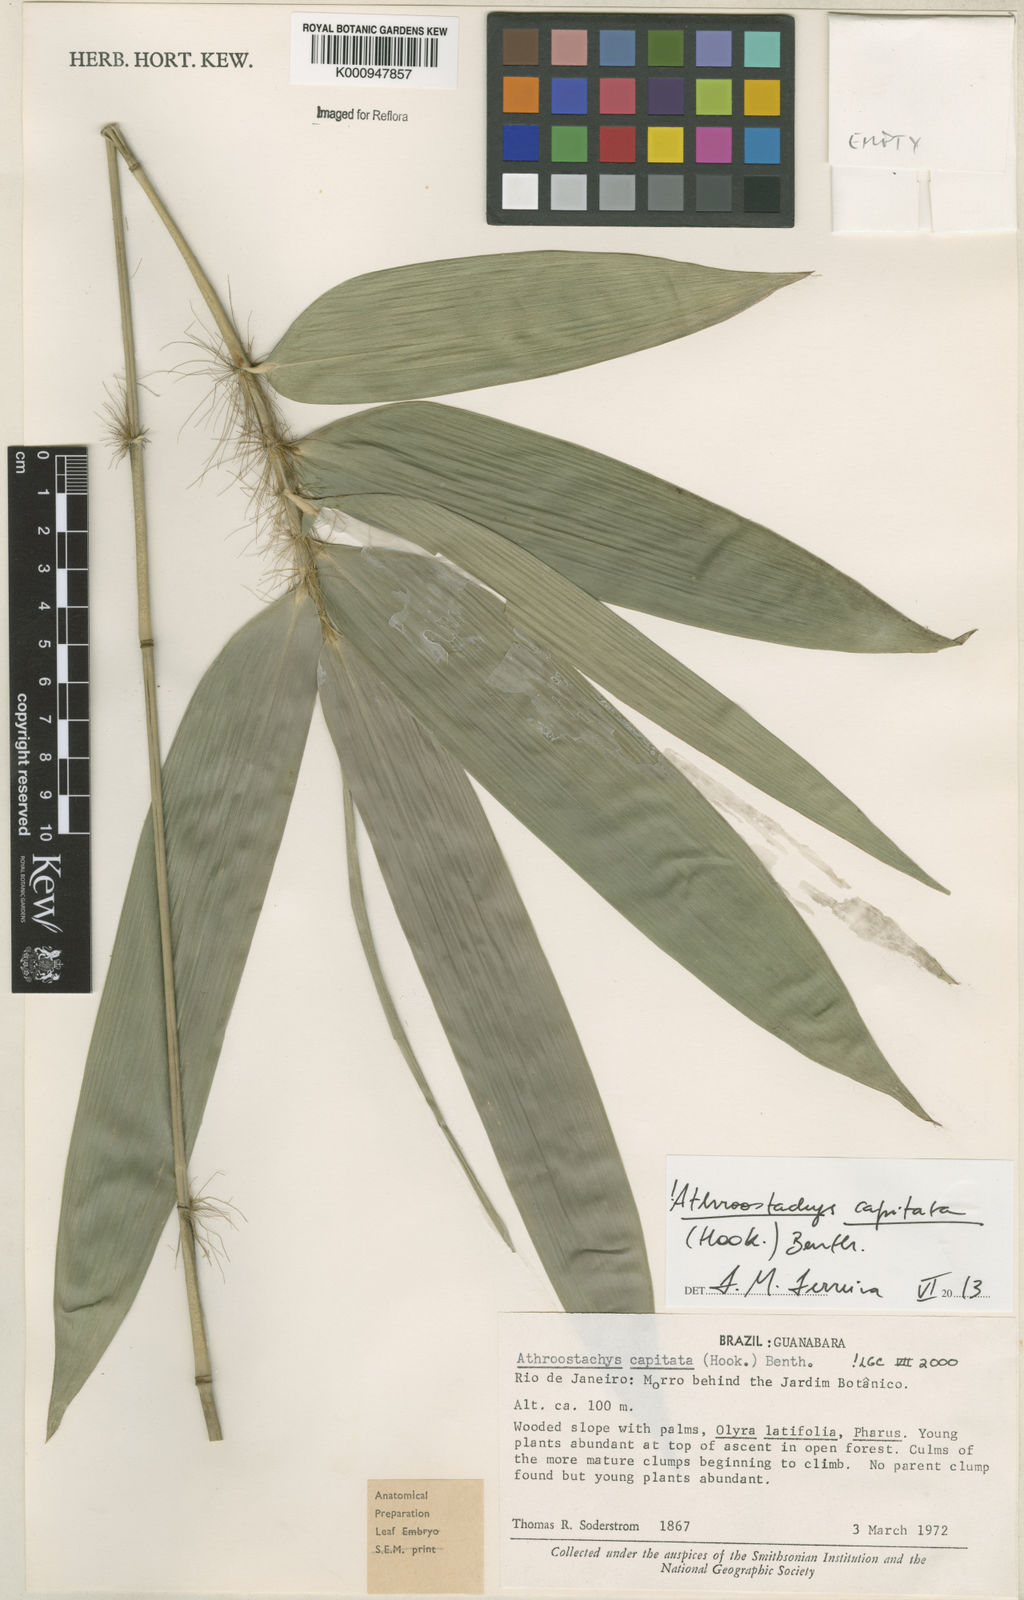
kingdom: Plantae
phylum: Tracheophyta
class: Liliopsida
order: Poales
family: Poaceae
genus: Athroostachys
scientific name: Athroostachys capitata
